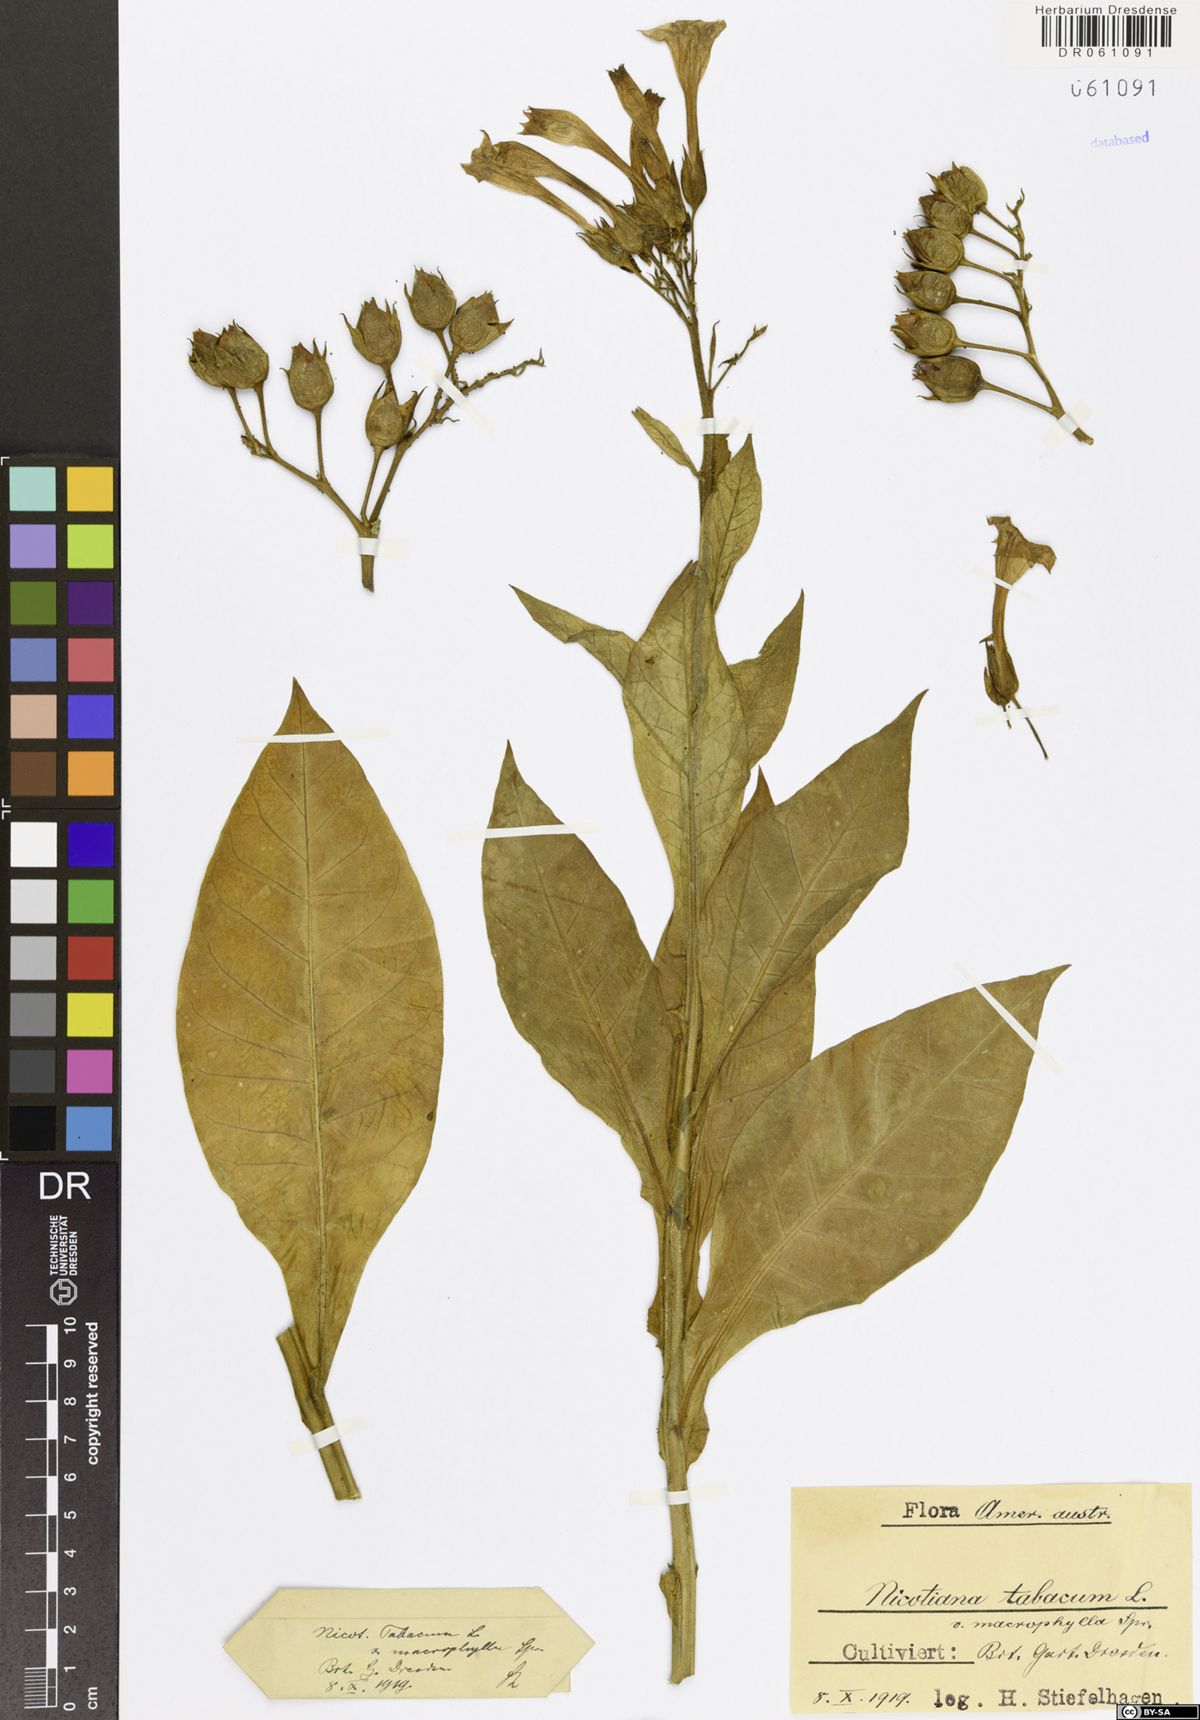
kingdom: Plantae
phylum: Tracheophyta
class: Magnoliopsida
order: Solanales
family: Solanaceae
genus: Nicotiana
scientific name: Nicotiana tabacum
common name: Tobacco
